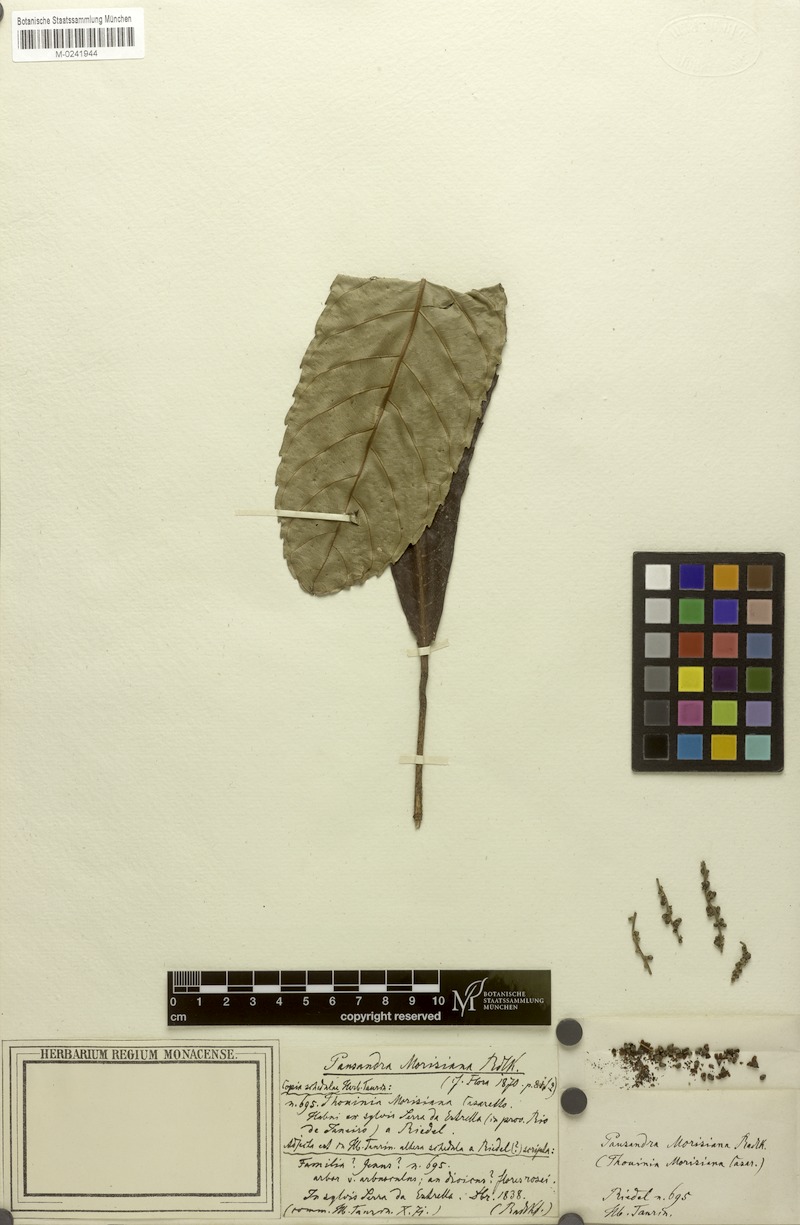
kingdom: Plantae
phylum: Tracheophyta
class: Magnoliopsida
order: Malpighiales
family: Euphorbiaceae
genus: Pausandra
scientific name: Pausandra morisiana
